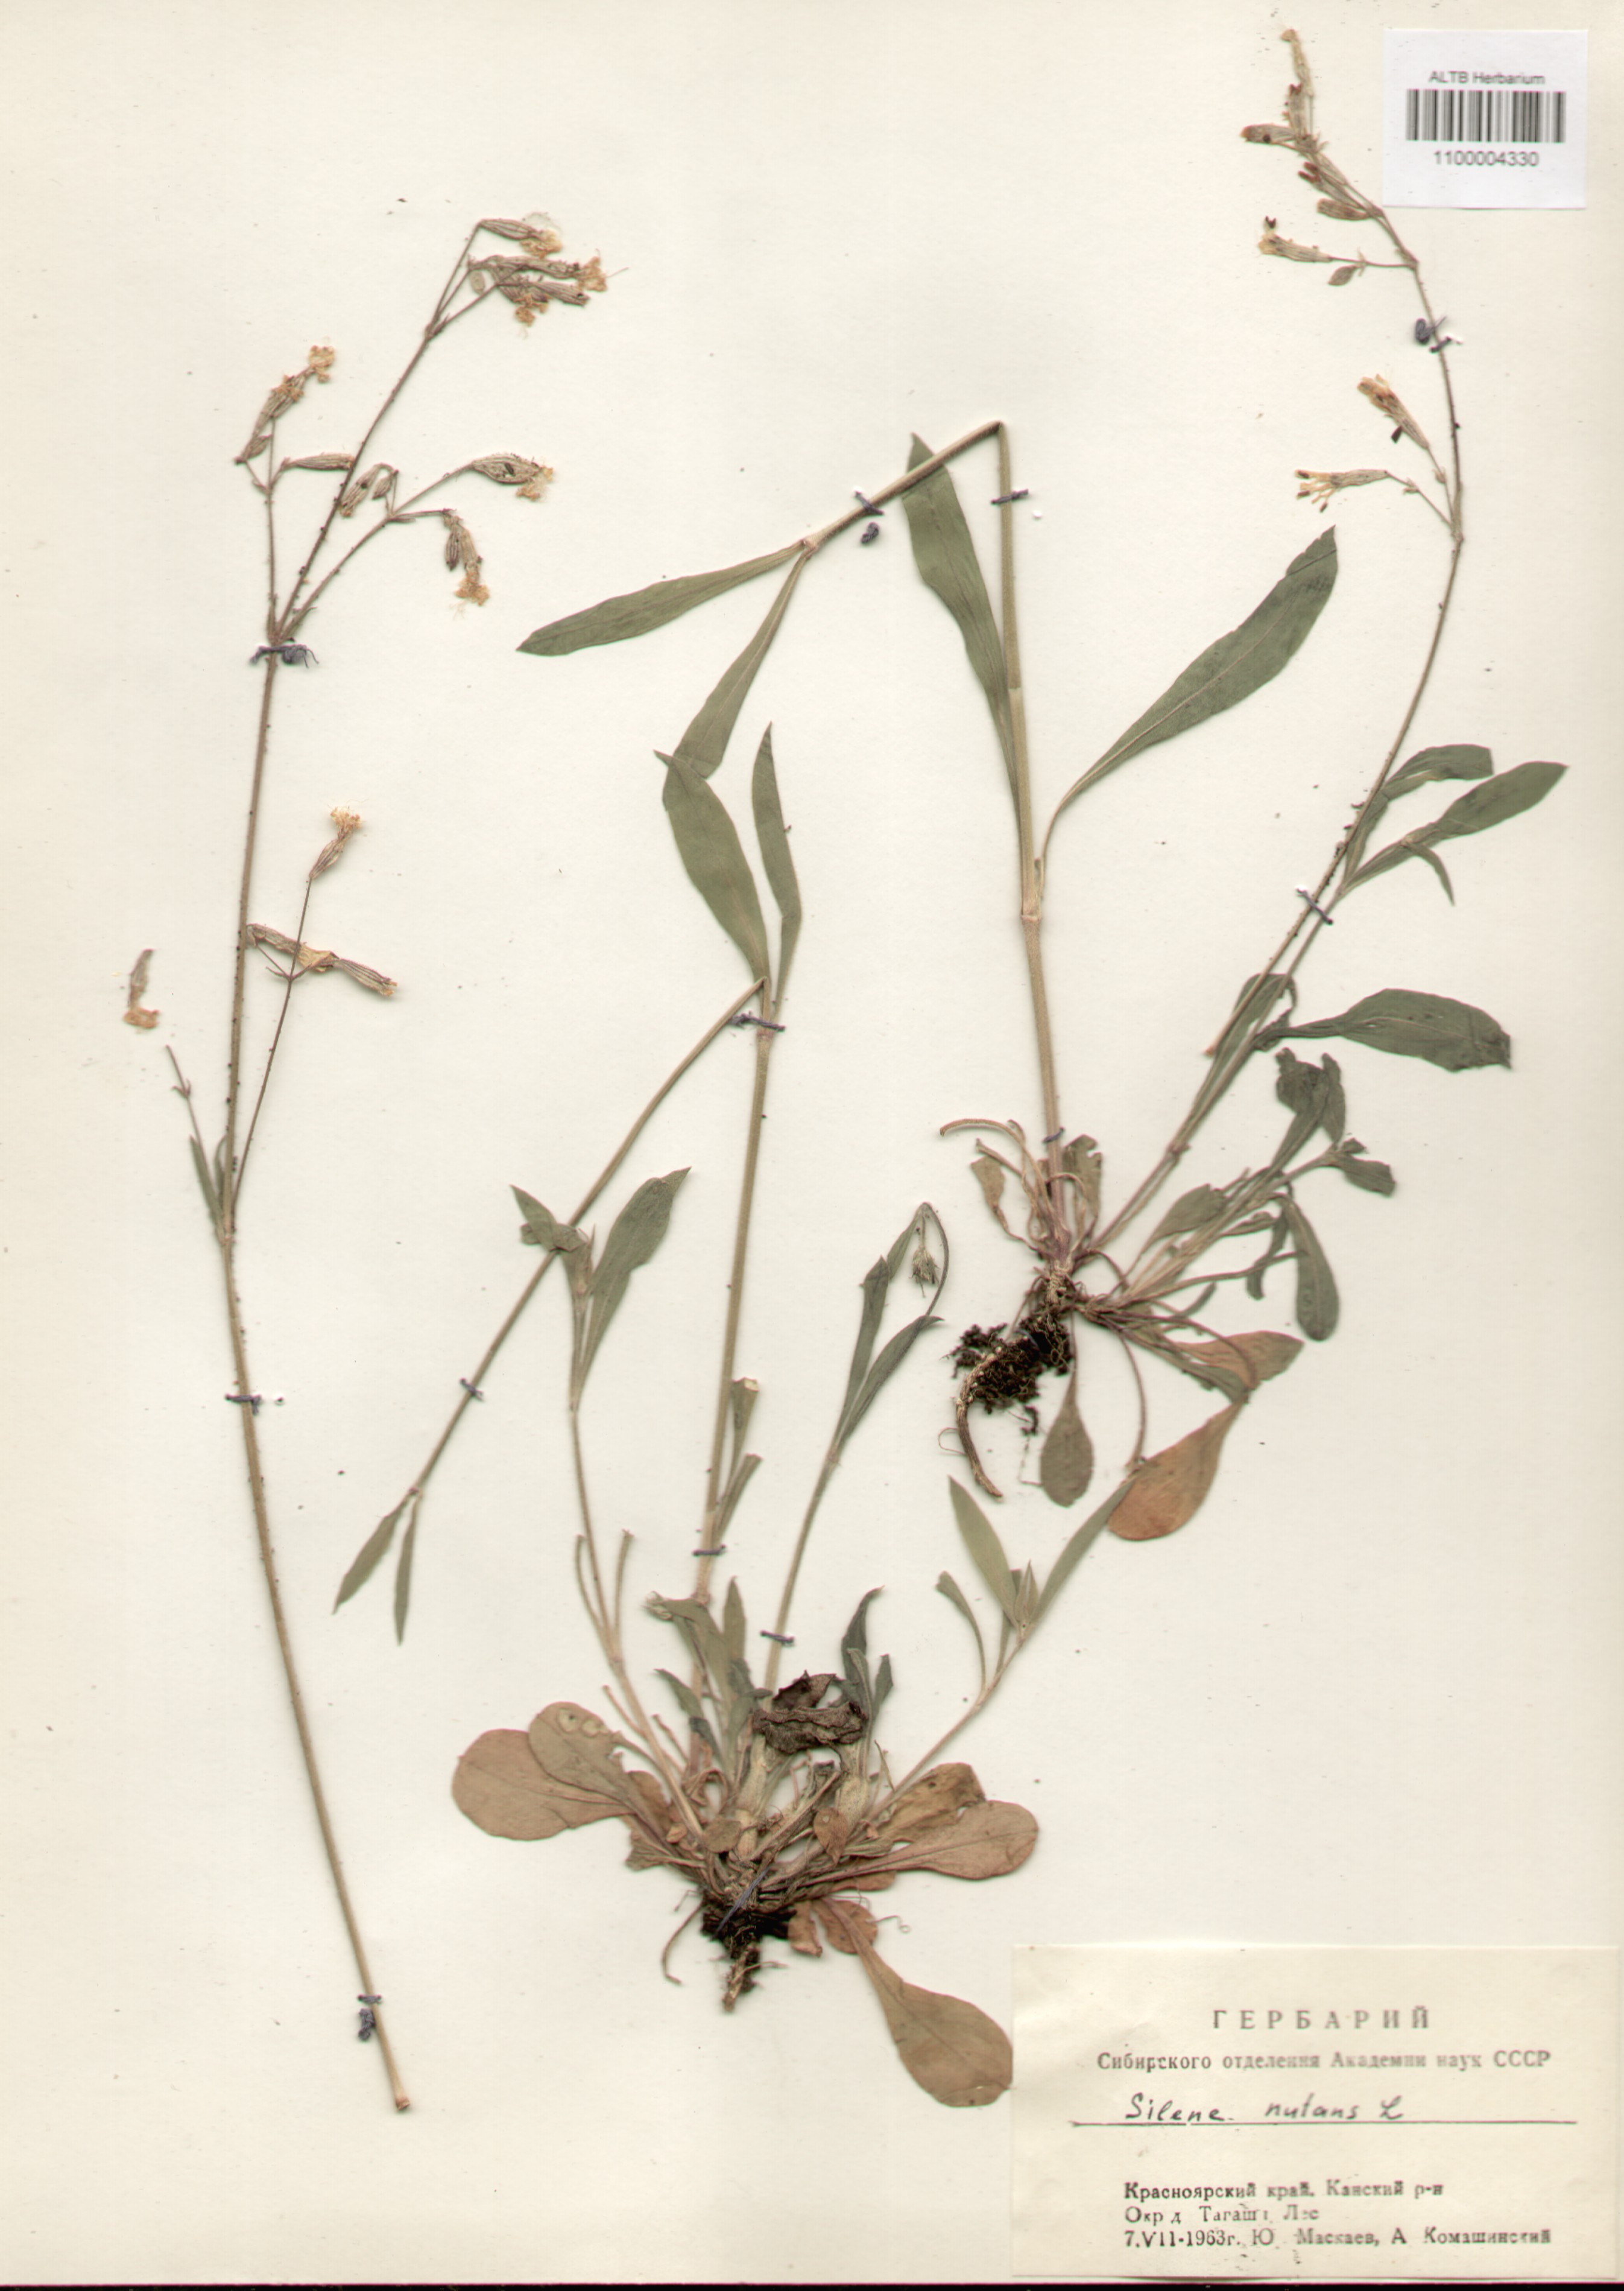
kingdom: Plantae
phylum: Tracheophyta
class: Magnoliopsida
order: Caryophyllales
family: Caryophyllaceae
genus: Silene
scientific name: Silene nutans
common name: Nottingham catchfly
